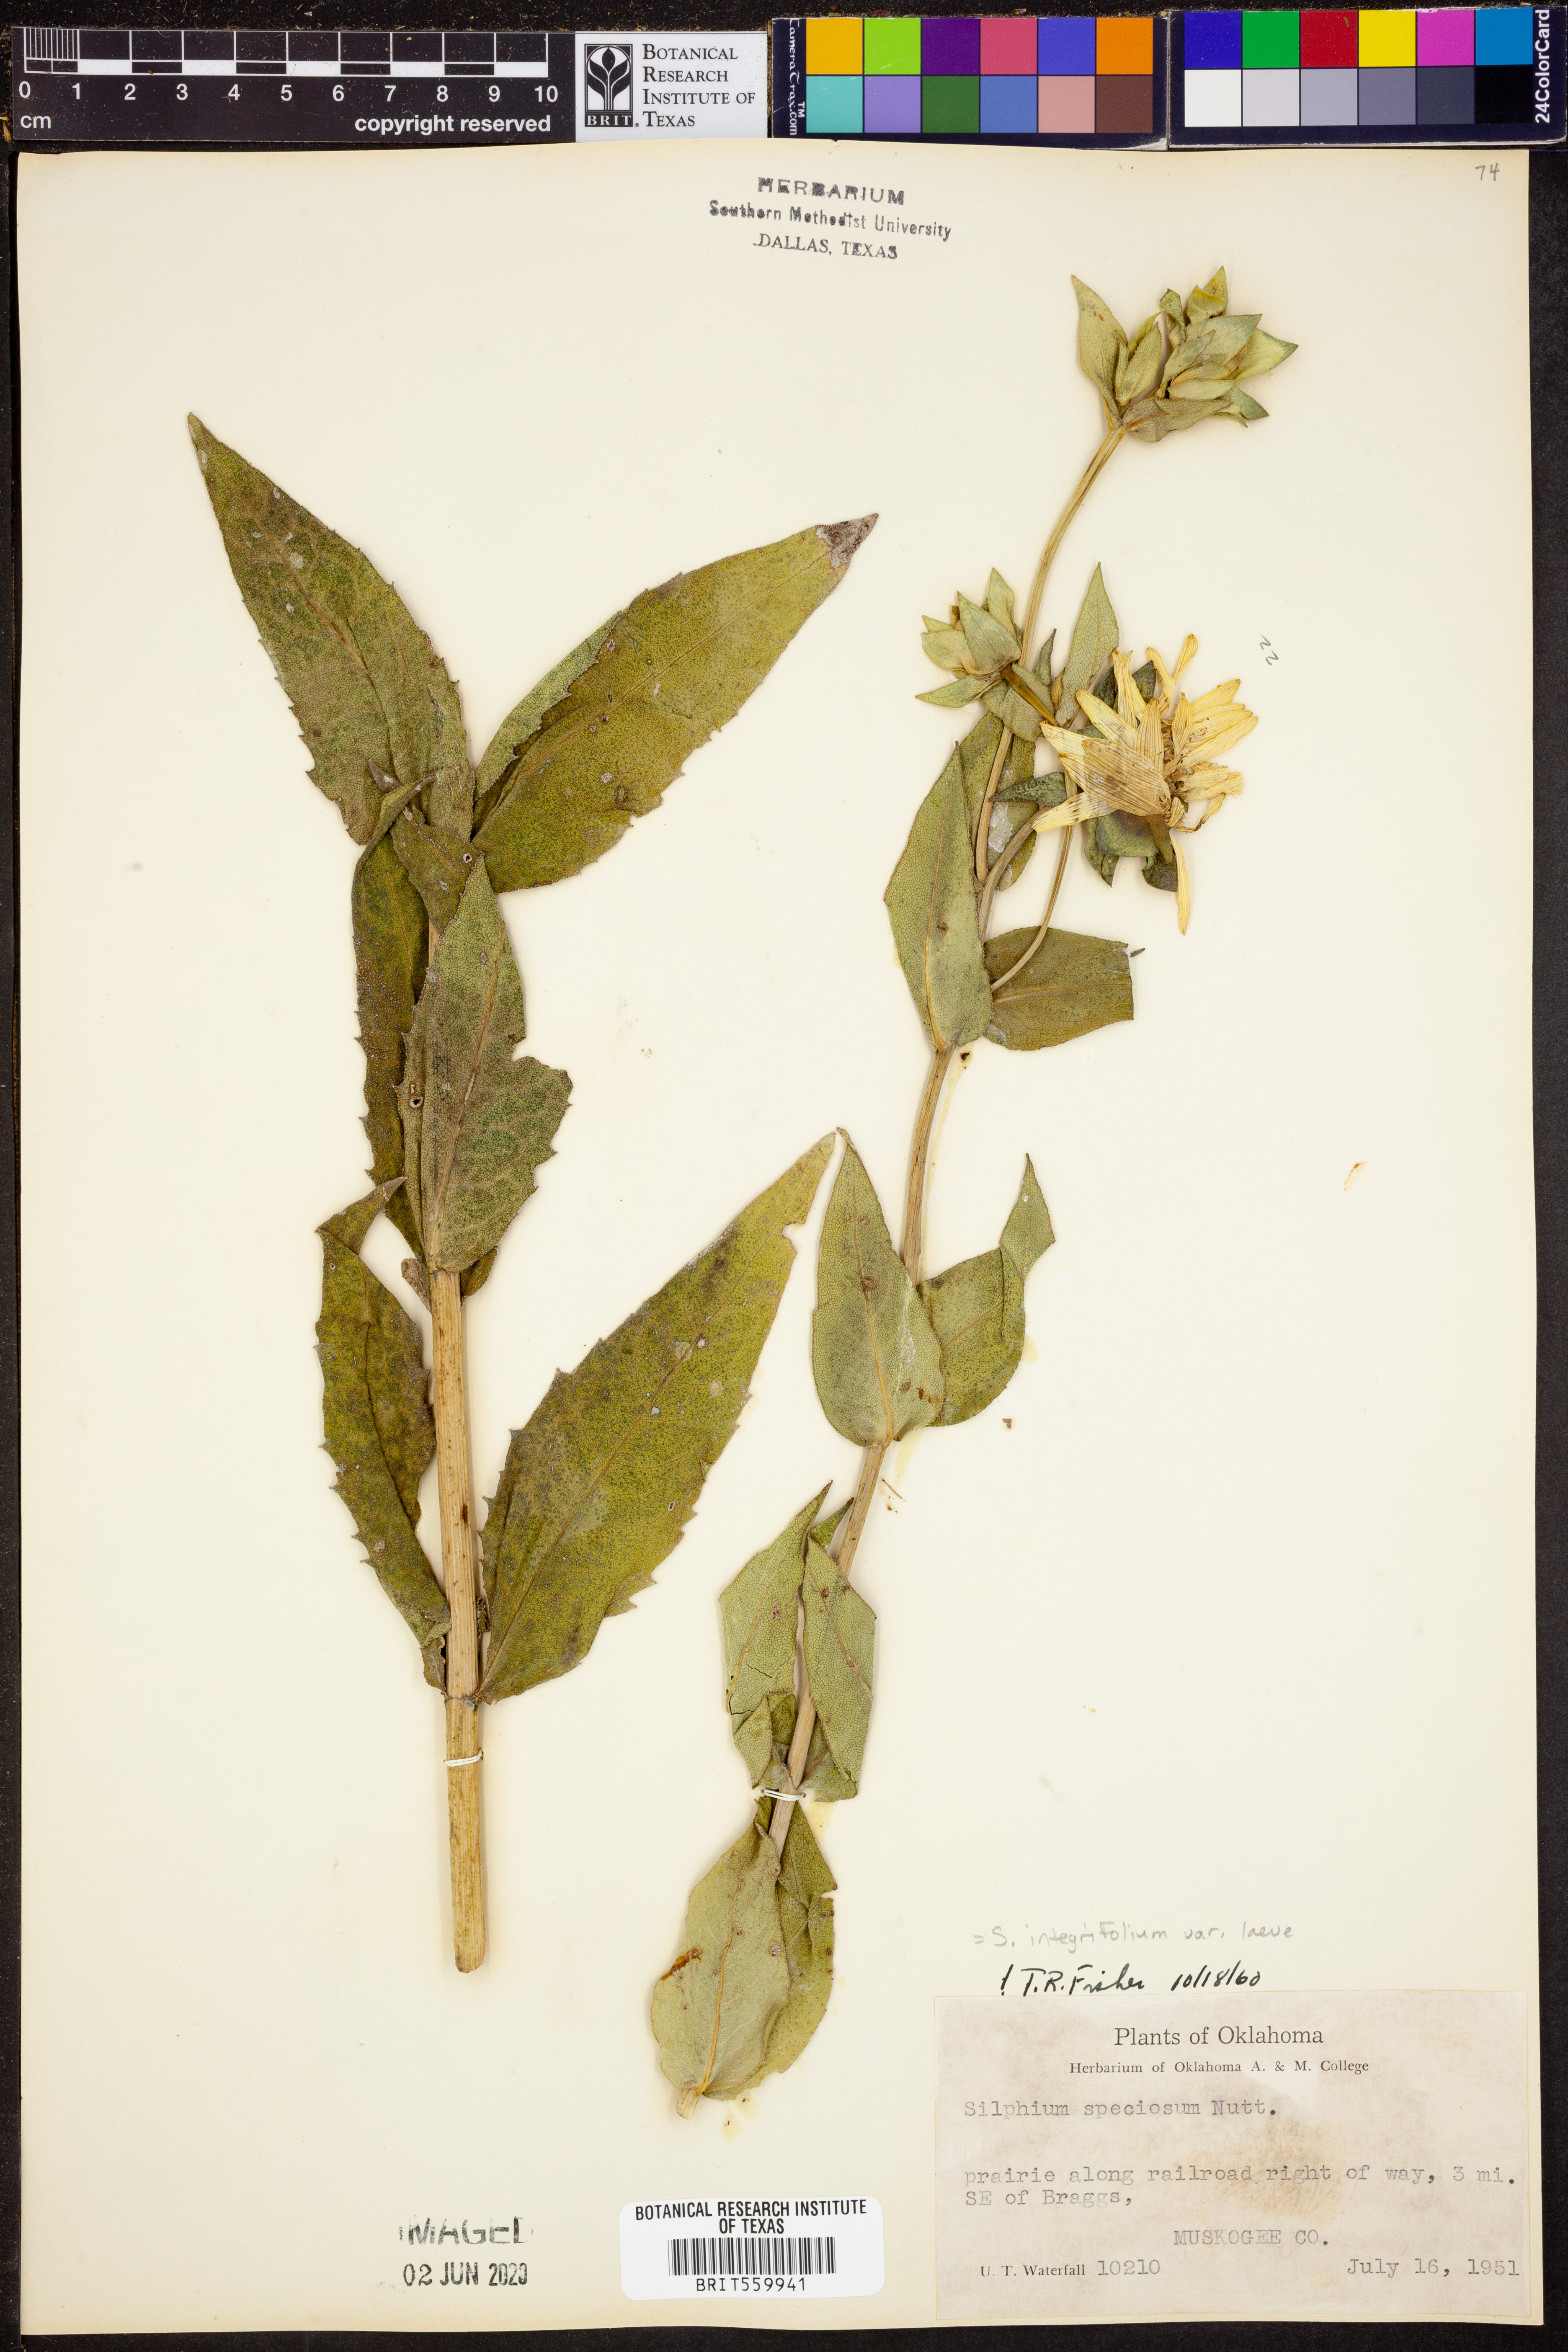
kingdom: Plantae
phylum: Tracheophyta
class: Magnoliopsida
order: Asterales
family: Asteraceae
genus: Silphium
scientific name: Silphium integrifolium
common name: Whole-leaf rosinweed
